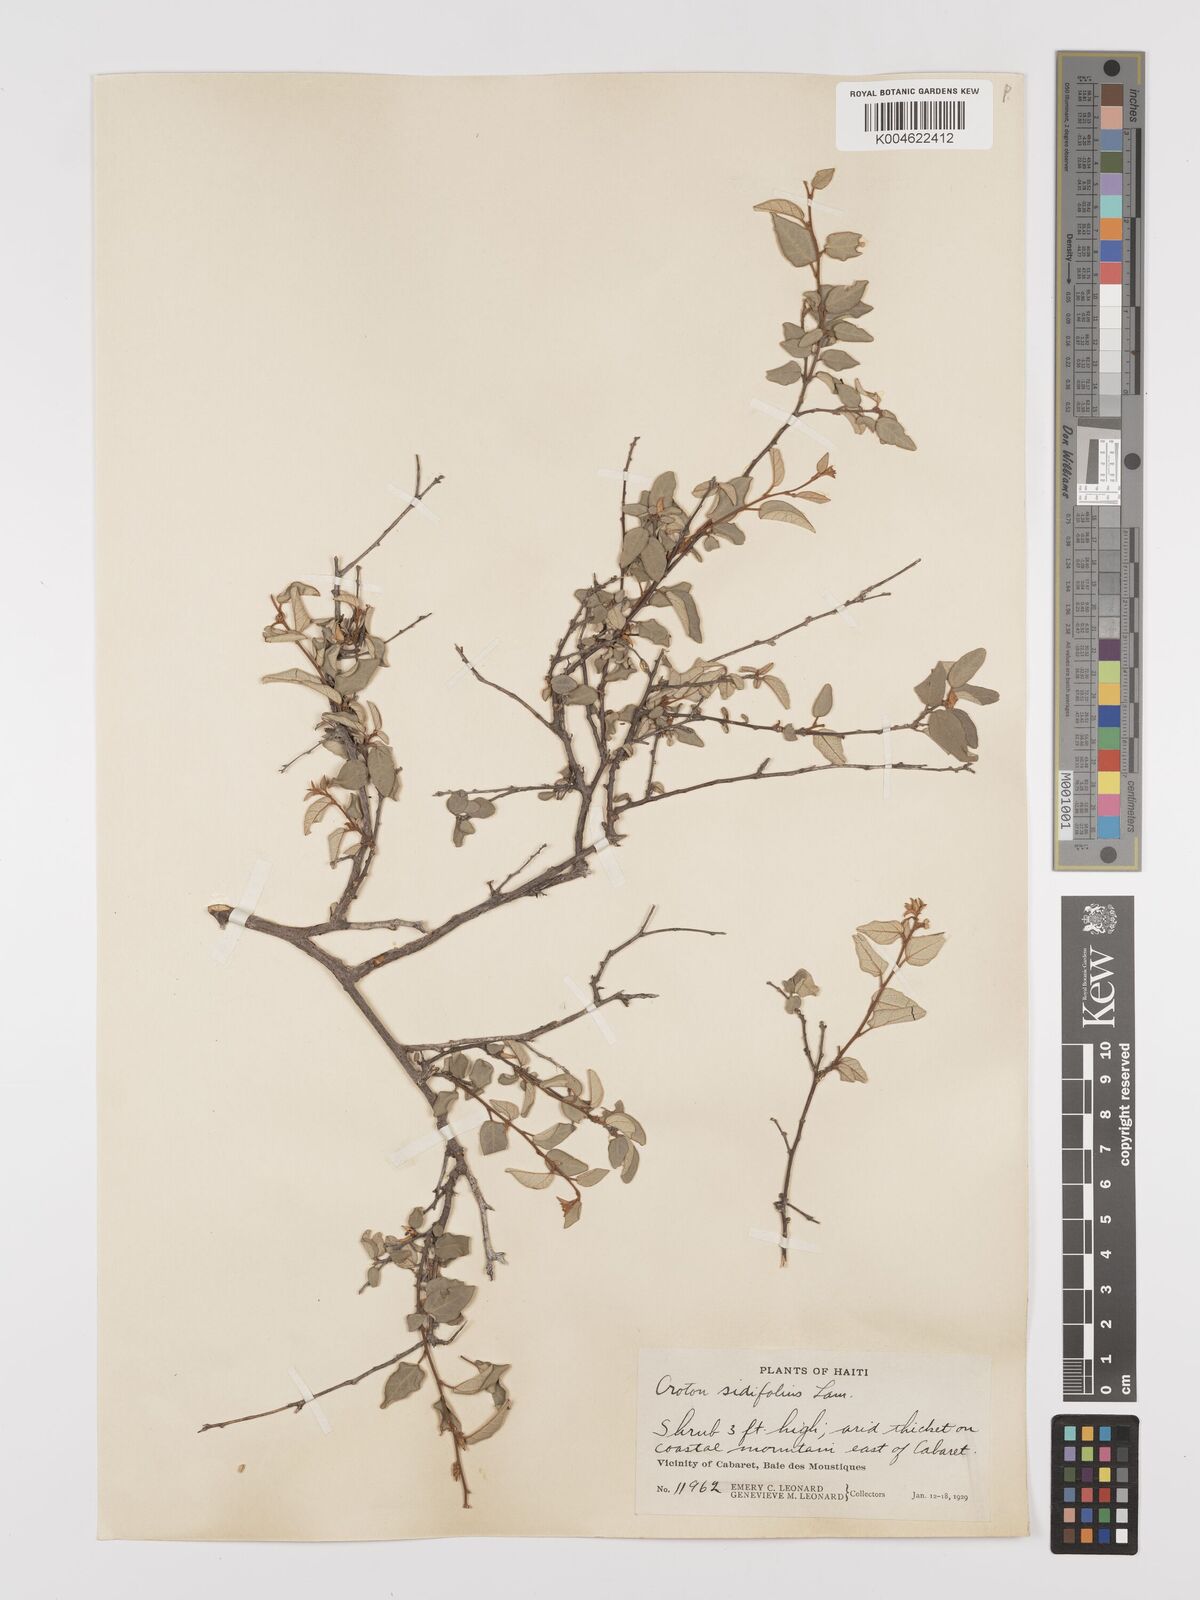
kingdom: Plantae
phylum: Tracheophyta
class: Magnoliopsida
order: Malpighiales
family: Euphorbiaceae
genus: Croton
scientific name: Croton sidifolius
